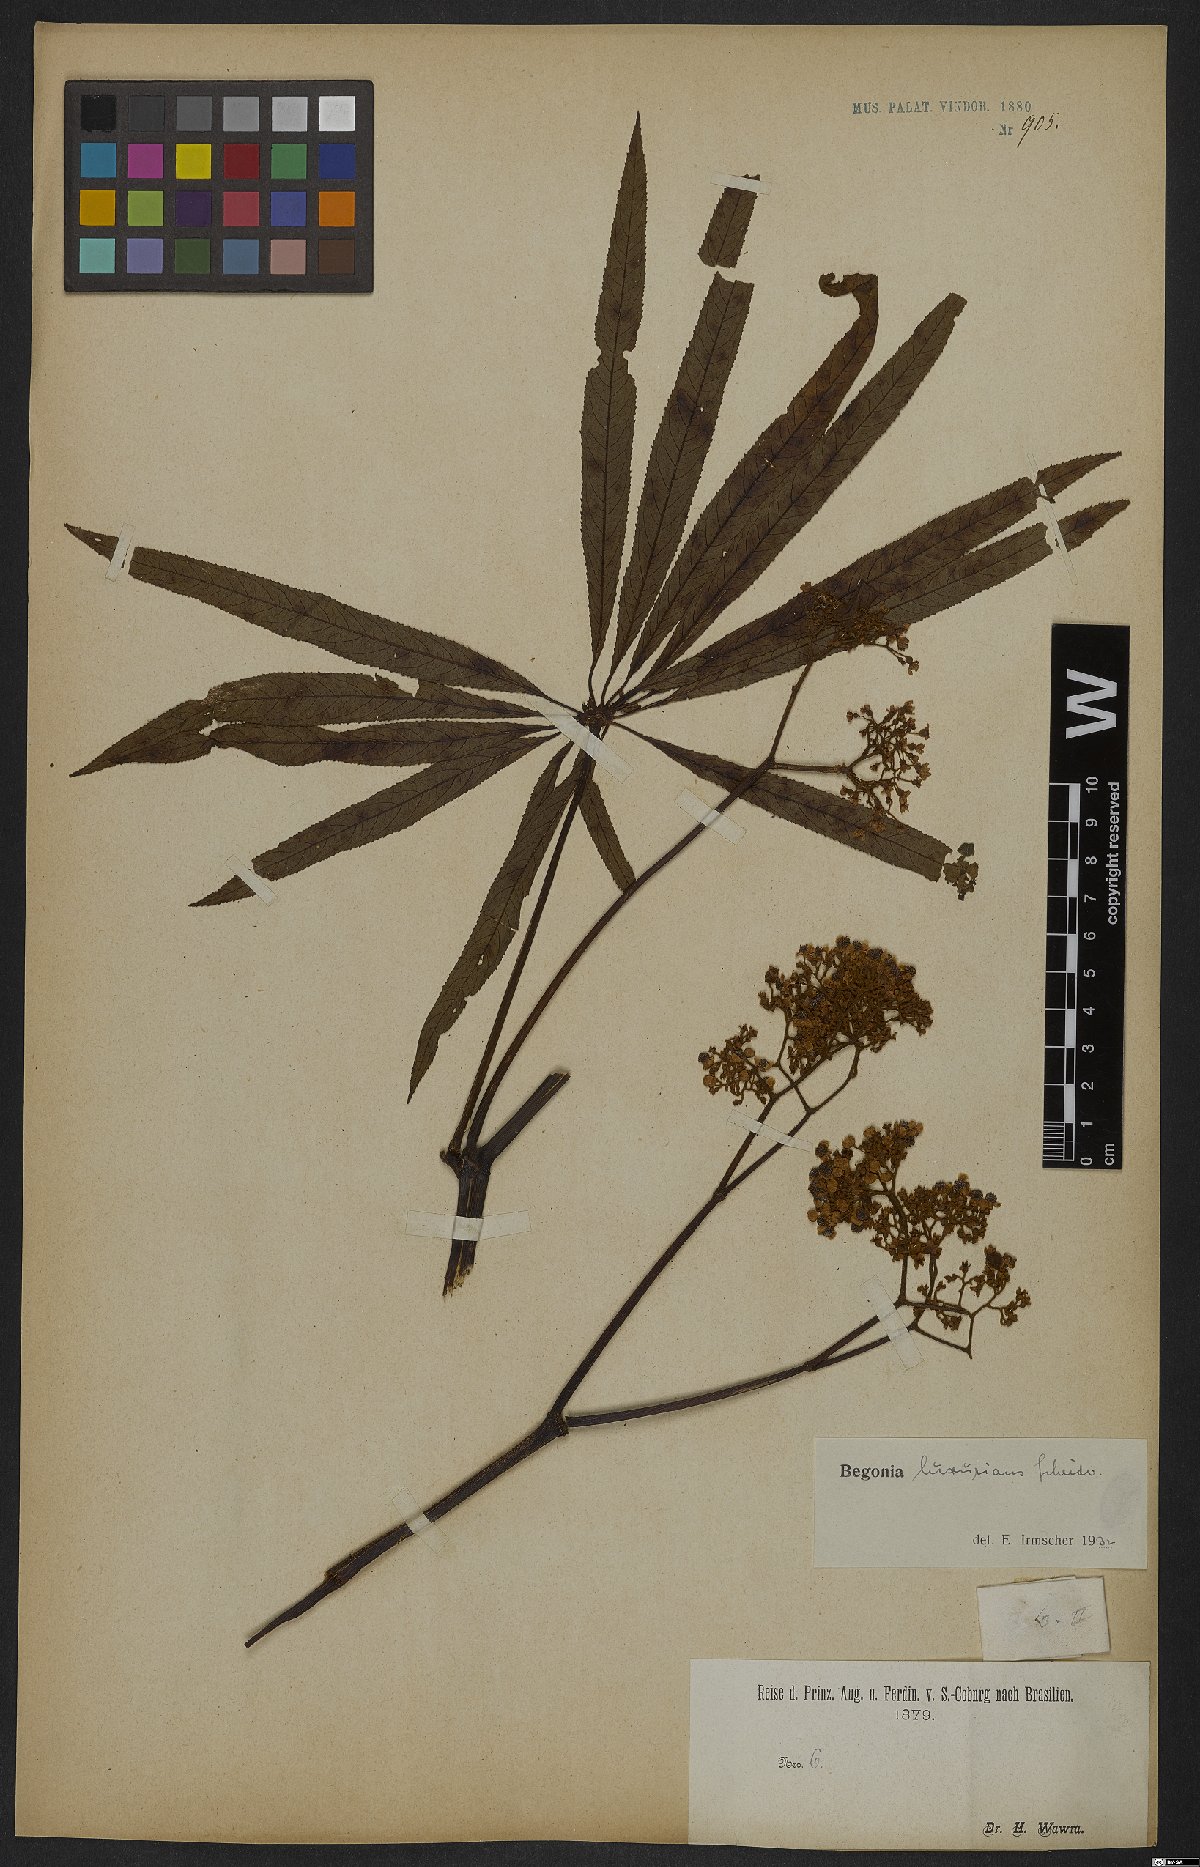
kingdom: Plantae
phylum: Tracheophyta
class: Magnoliopsida
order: Cucurbitales
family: Begoniaceae
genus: Begonia
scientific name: Begonia luxurians
